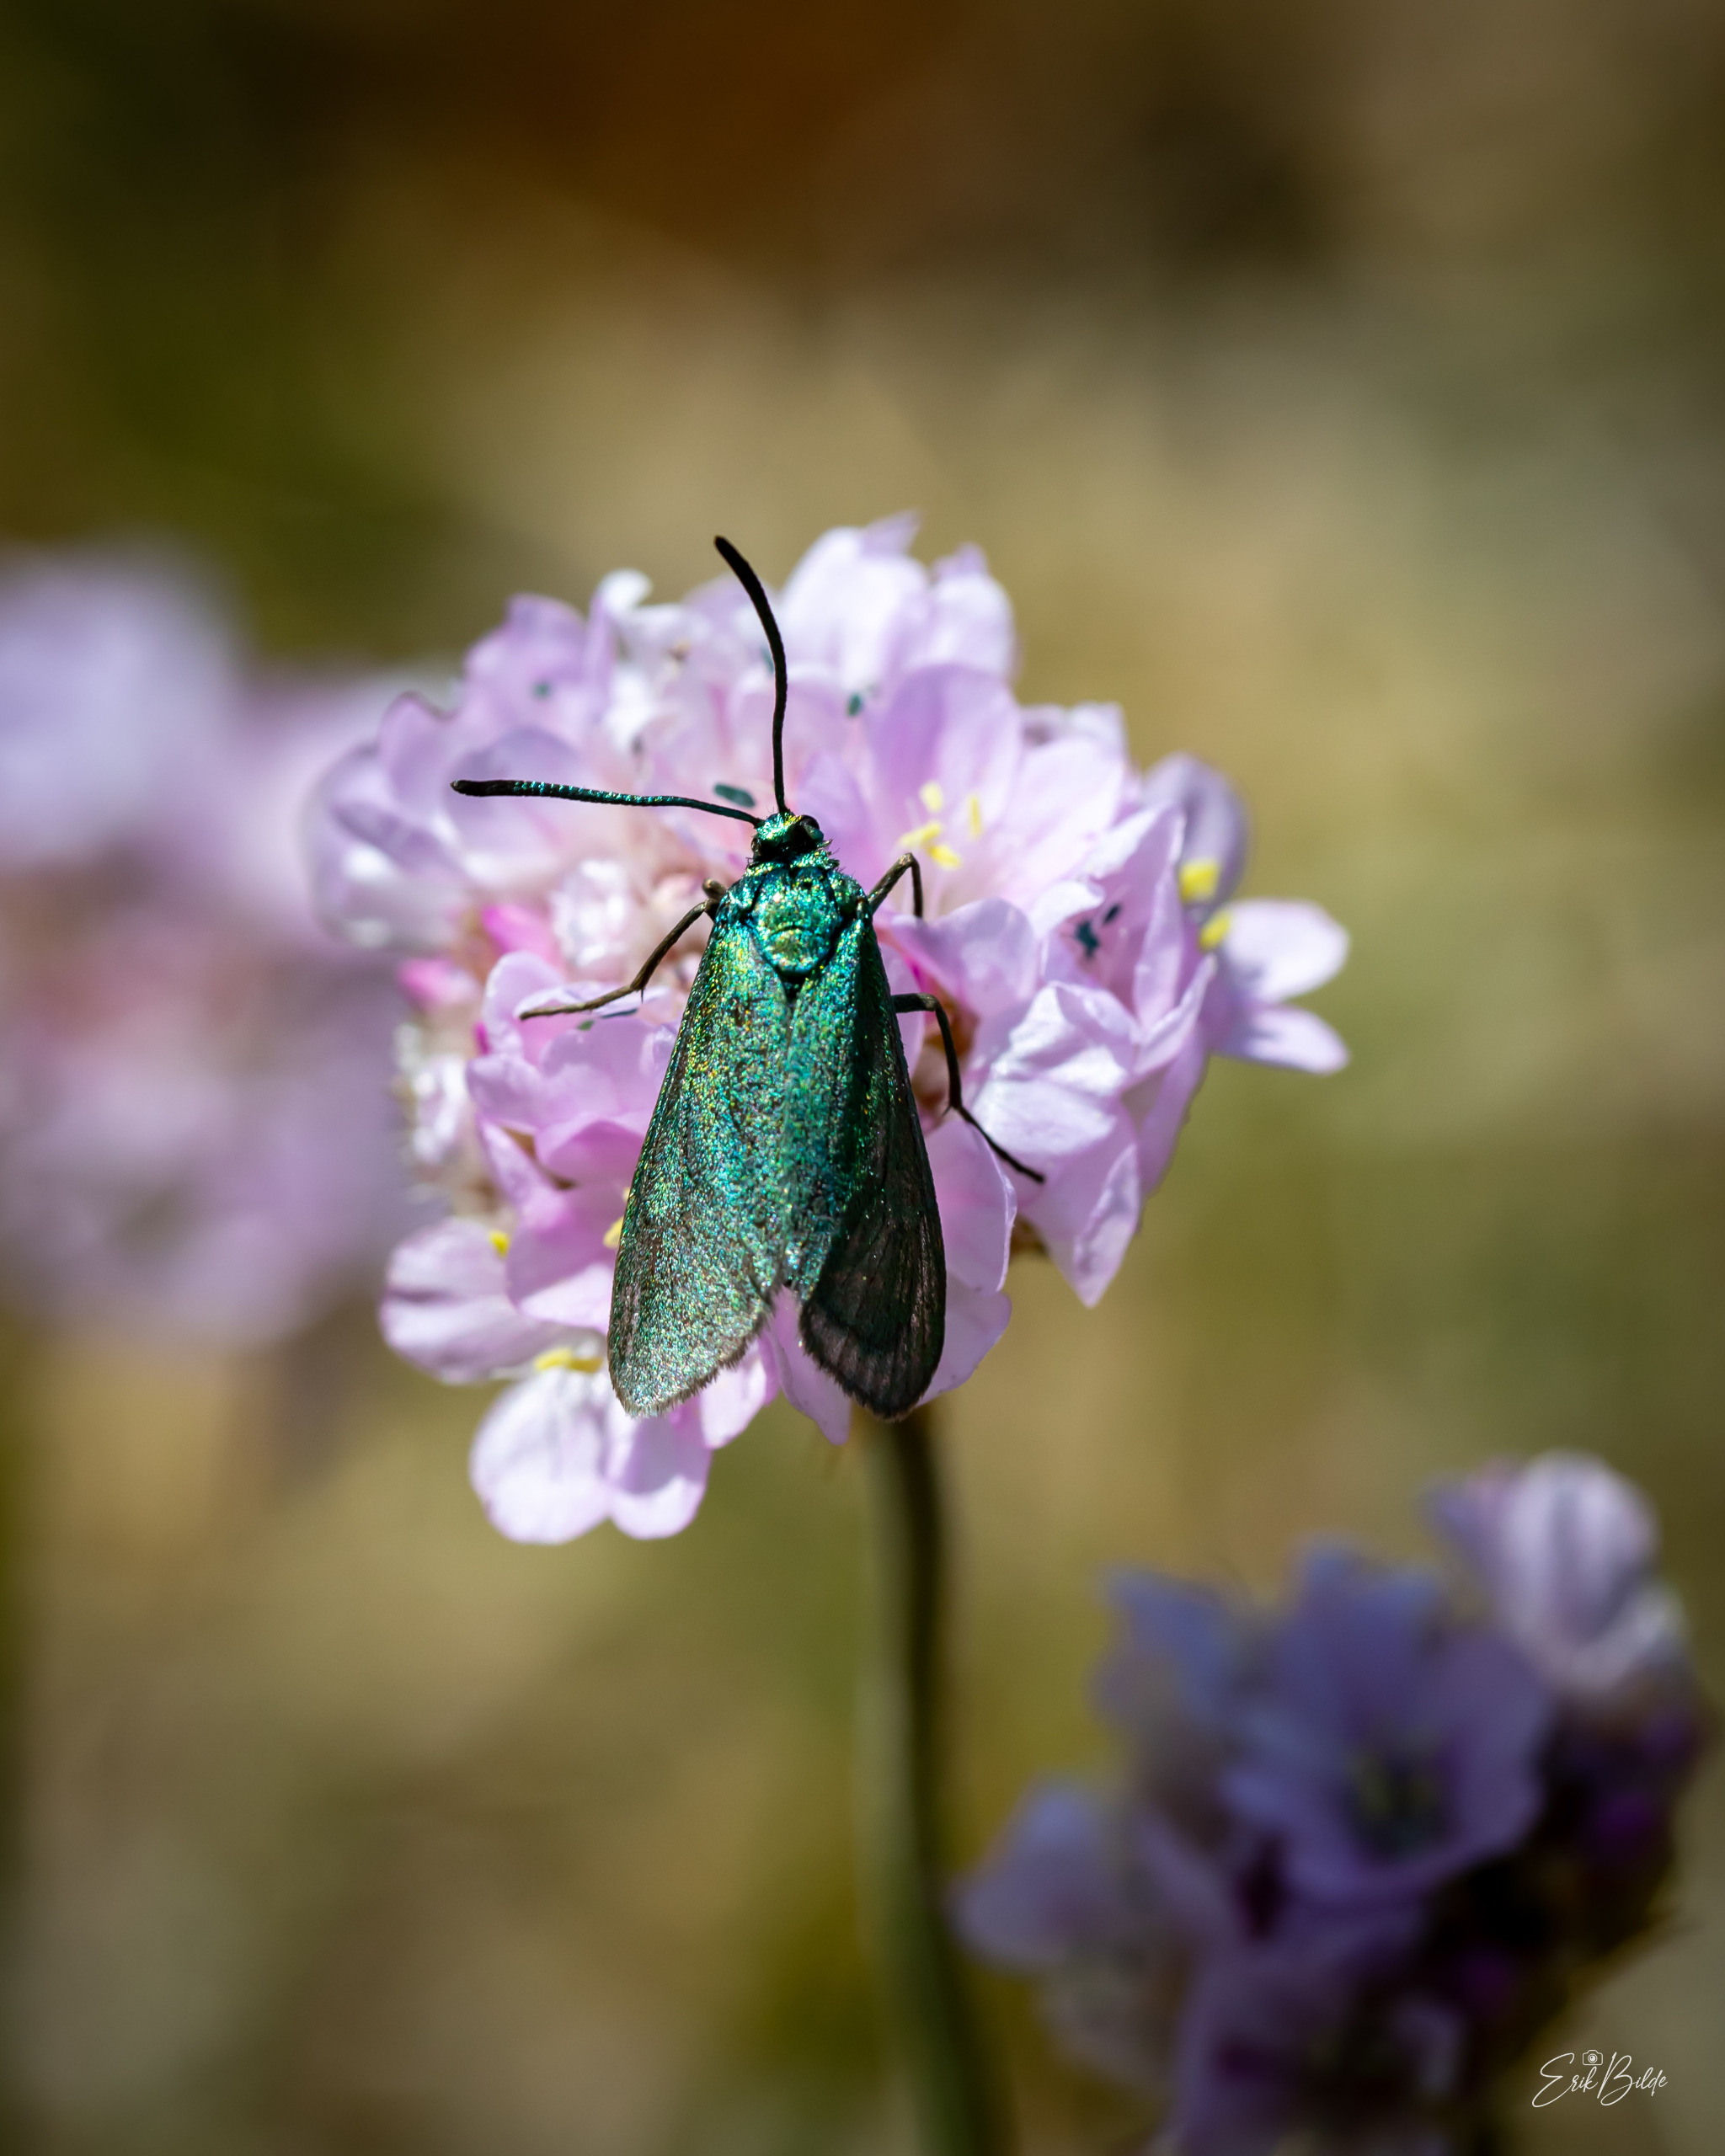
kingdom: Animalia
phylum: Arthropoda
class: Insecta
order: Lepidoptera
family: Zygaenidae
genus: Adscita
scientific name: Adscita statices
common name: Metalvinge
